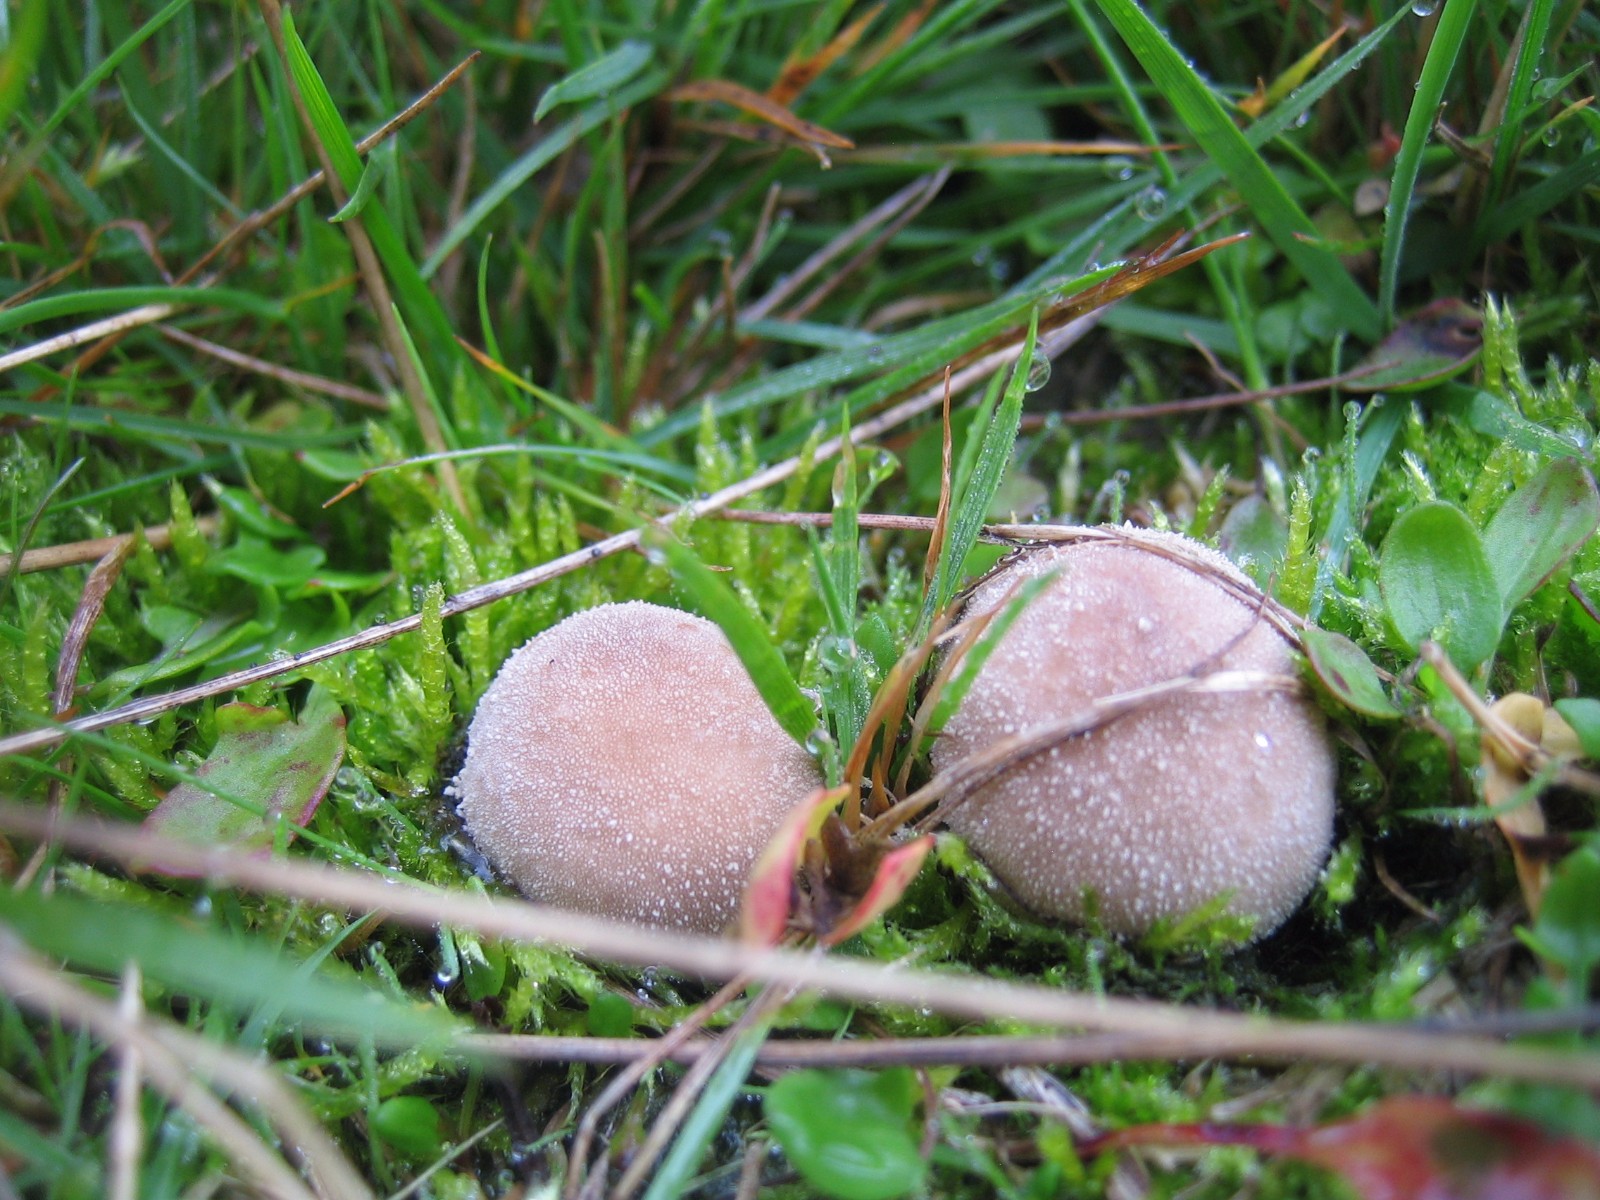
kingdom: Fungi
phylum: Basidiomycota
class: Agaricomycetes
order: Agaricales
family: Lycoperdaceae
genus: Lycoperdon
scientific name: Lycoperdon lividum
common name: mark-støvbold
